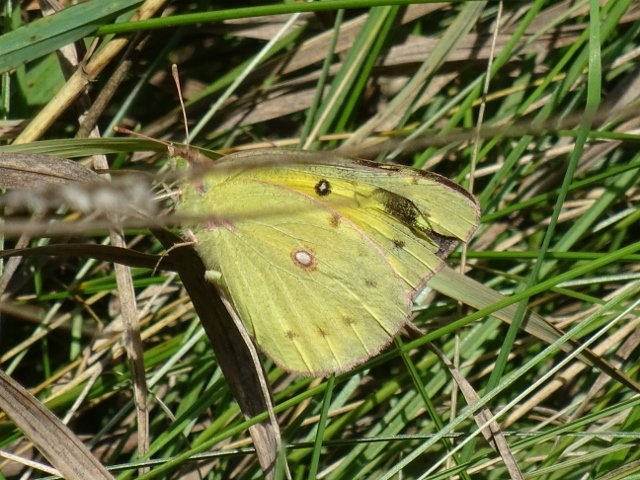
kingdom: Animalia
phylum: Arthropoda
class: Insecta
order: Lepidoptera
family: Pieridae
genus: Colias
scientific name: Colias eurytheme
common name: Orange Sulphur
